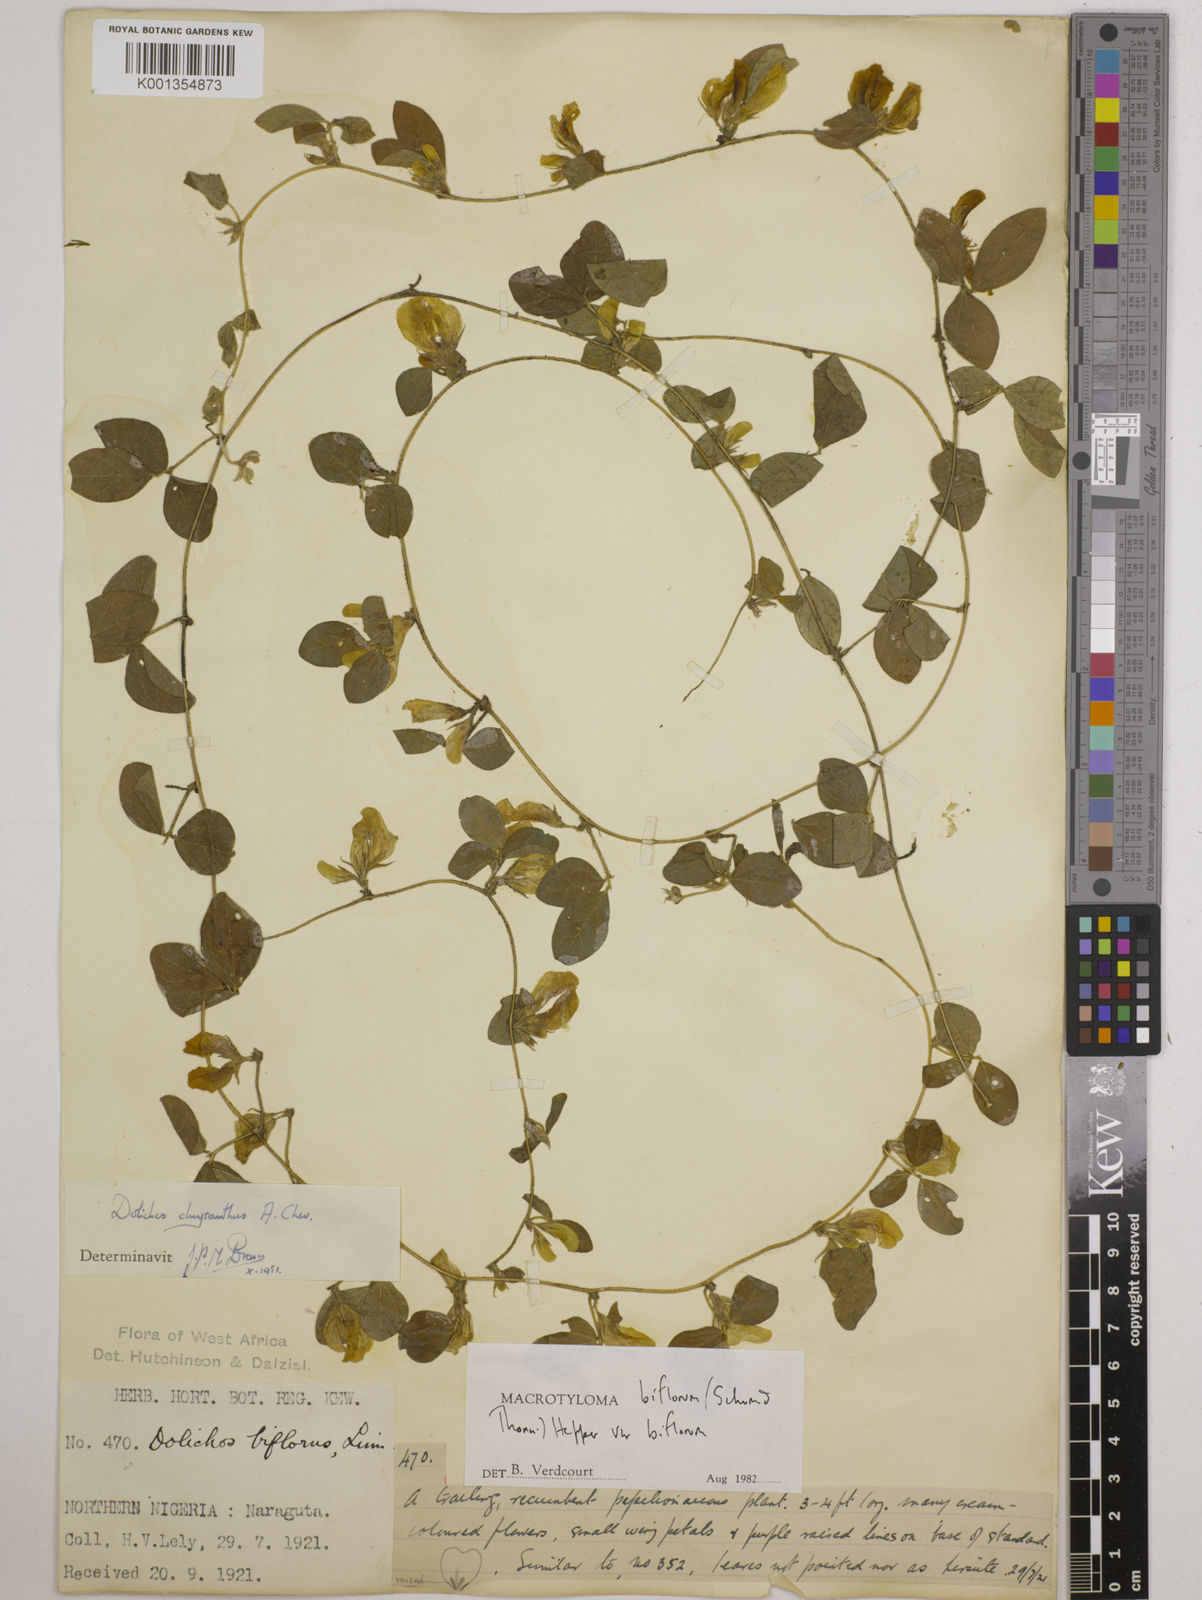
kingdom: Plantae
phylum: Tracheophyta
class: Magnoliopsida
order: Fabales
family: Fabaceae
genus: Macrotyloma
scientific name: Macrotyloma biflorum
